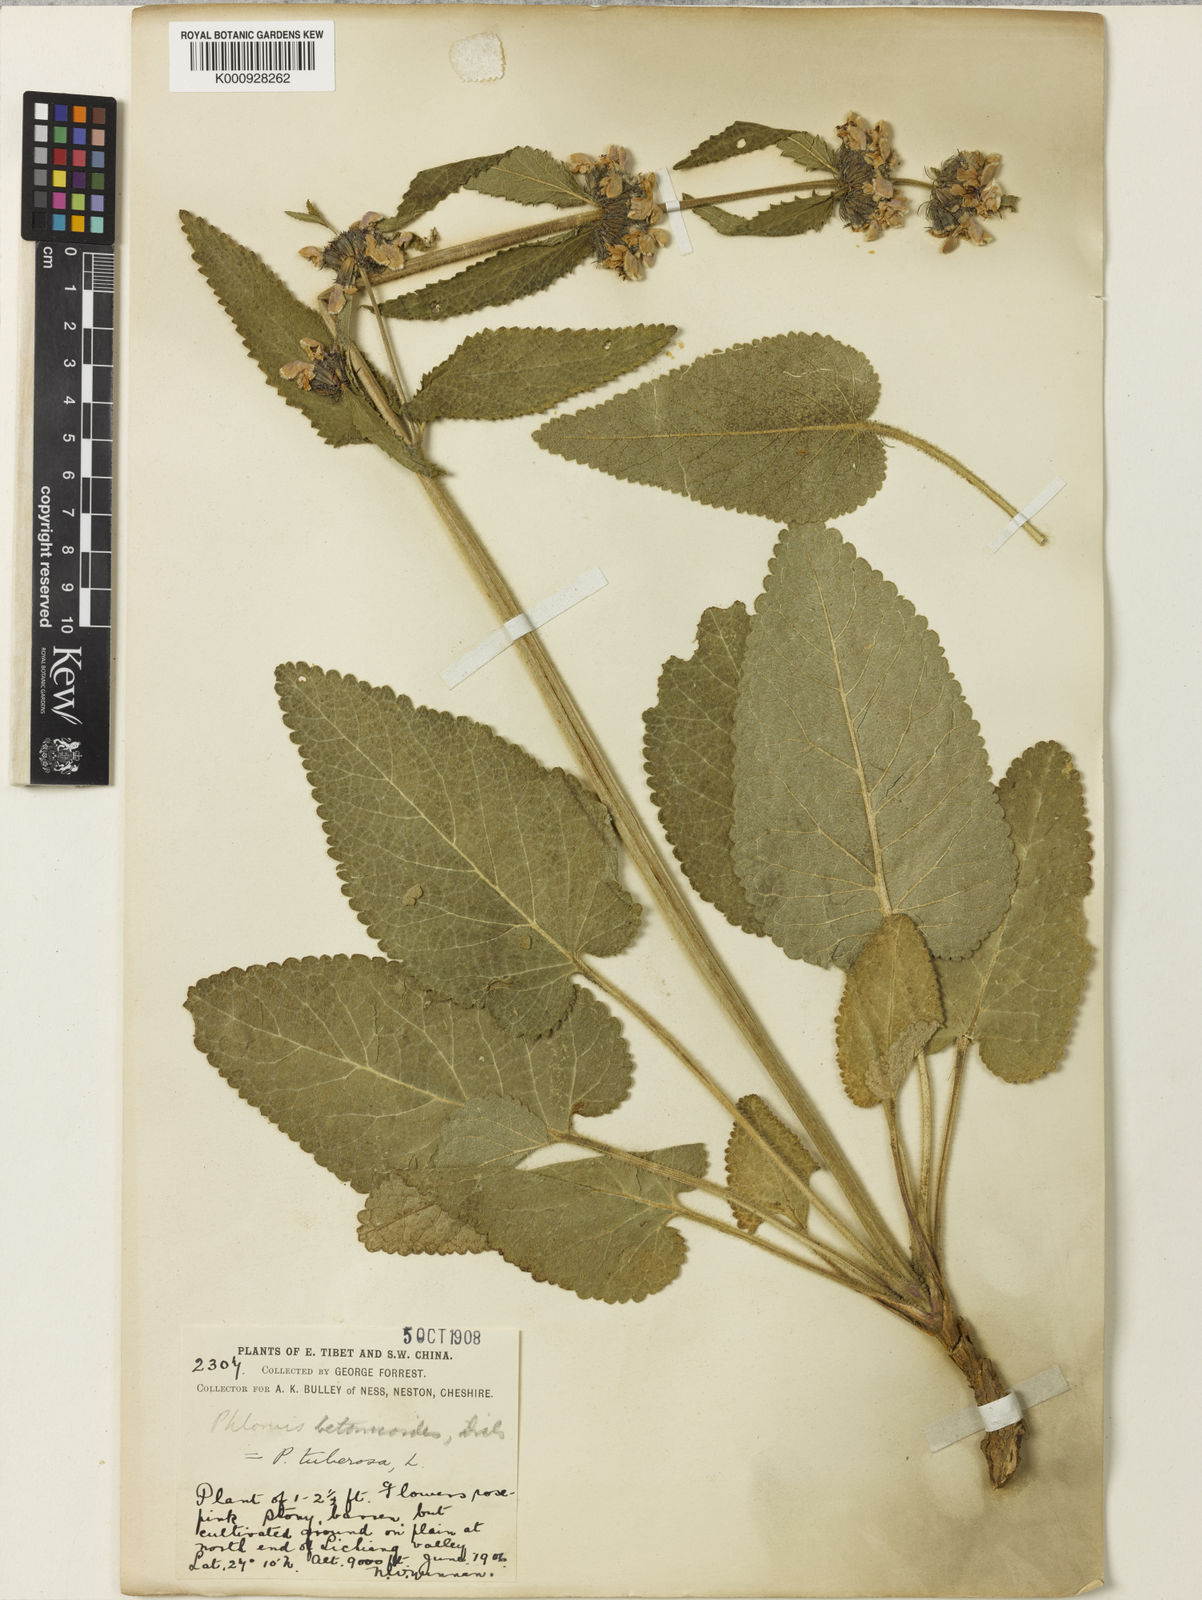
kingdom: Plantae
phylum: Tracheophyta
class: Magnoliopsida
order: Lamiales
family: Lamiaceae
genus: Phlomoides
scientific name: Phlomoides betonicoides
